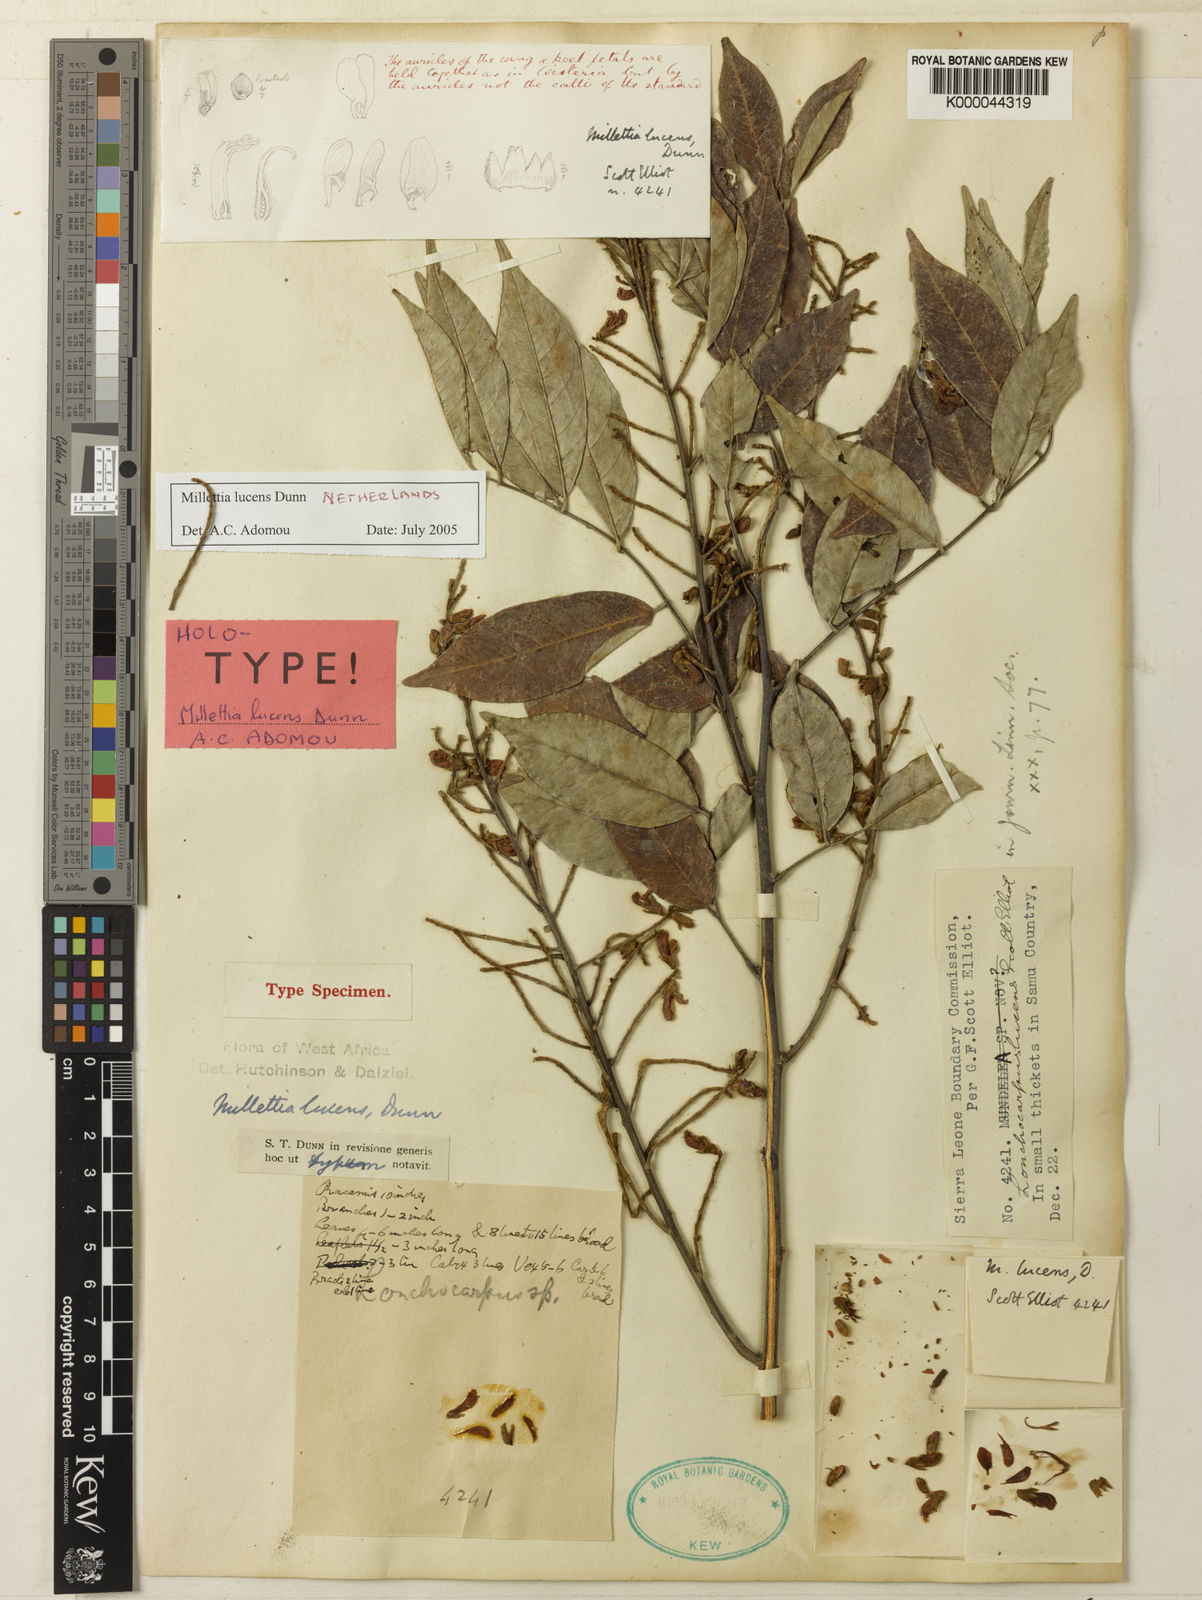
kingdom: Plantae
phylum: Tracheophyta
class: Magnoliopsida
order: Fabales
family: Fabaceae
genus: Millettia
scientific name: Millettia lucens
